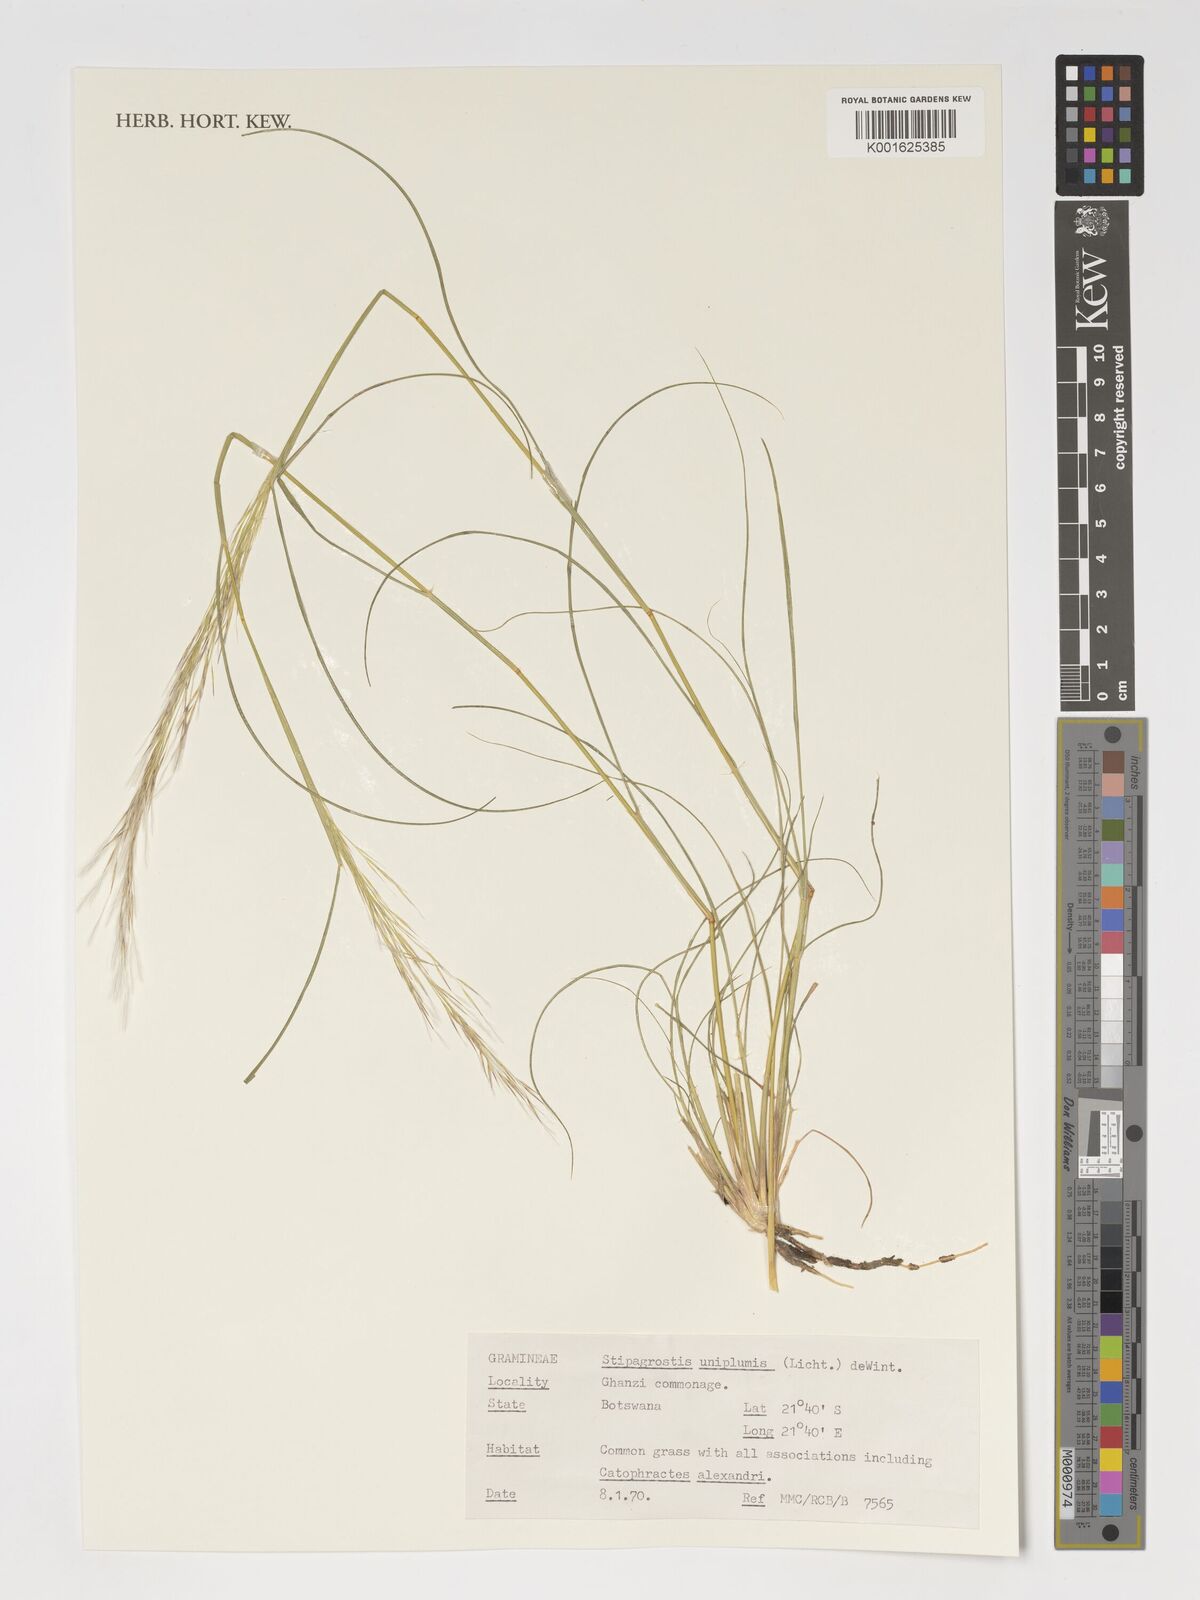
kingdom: Plantae
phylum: Tracheophyta
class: Liliopsida
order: Poales
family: Poaceae
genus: Stipagrostis
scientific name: Stipagrostis uniplumis
